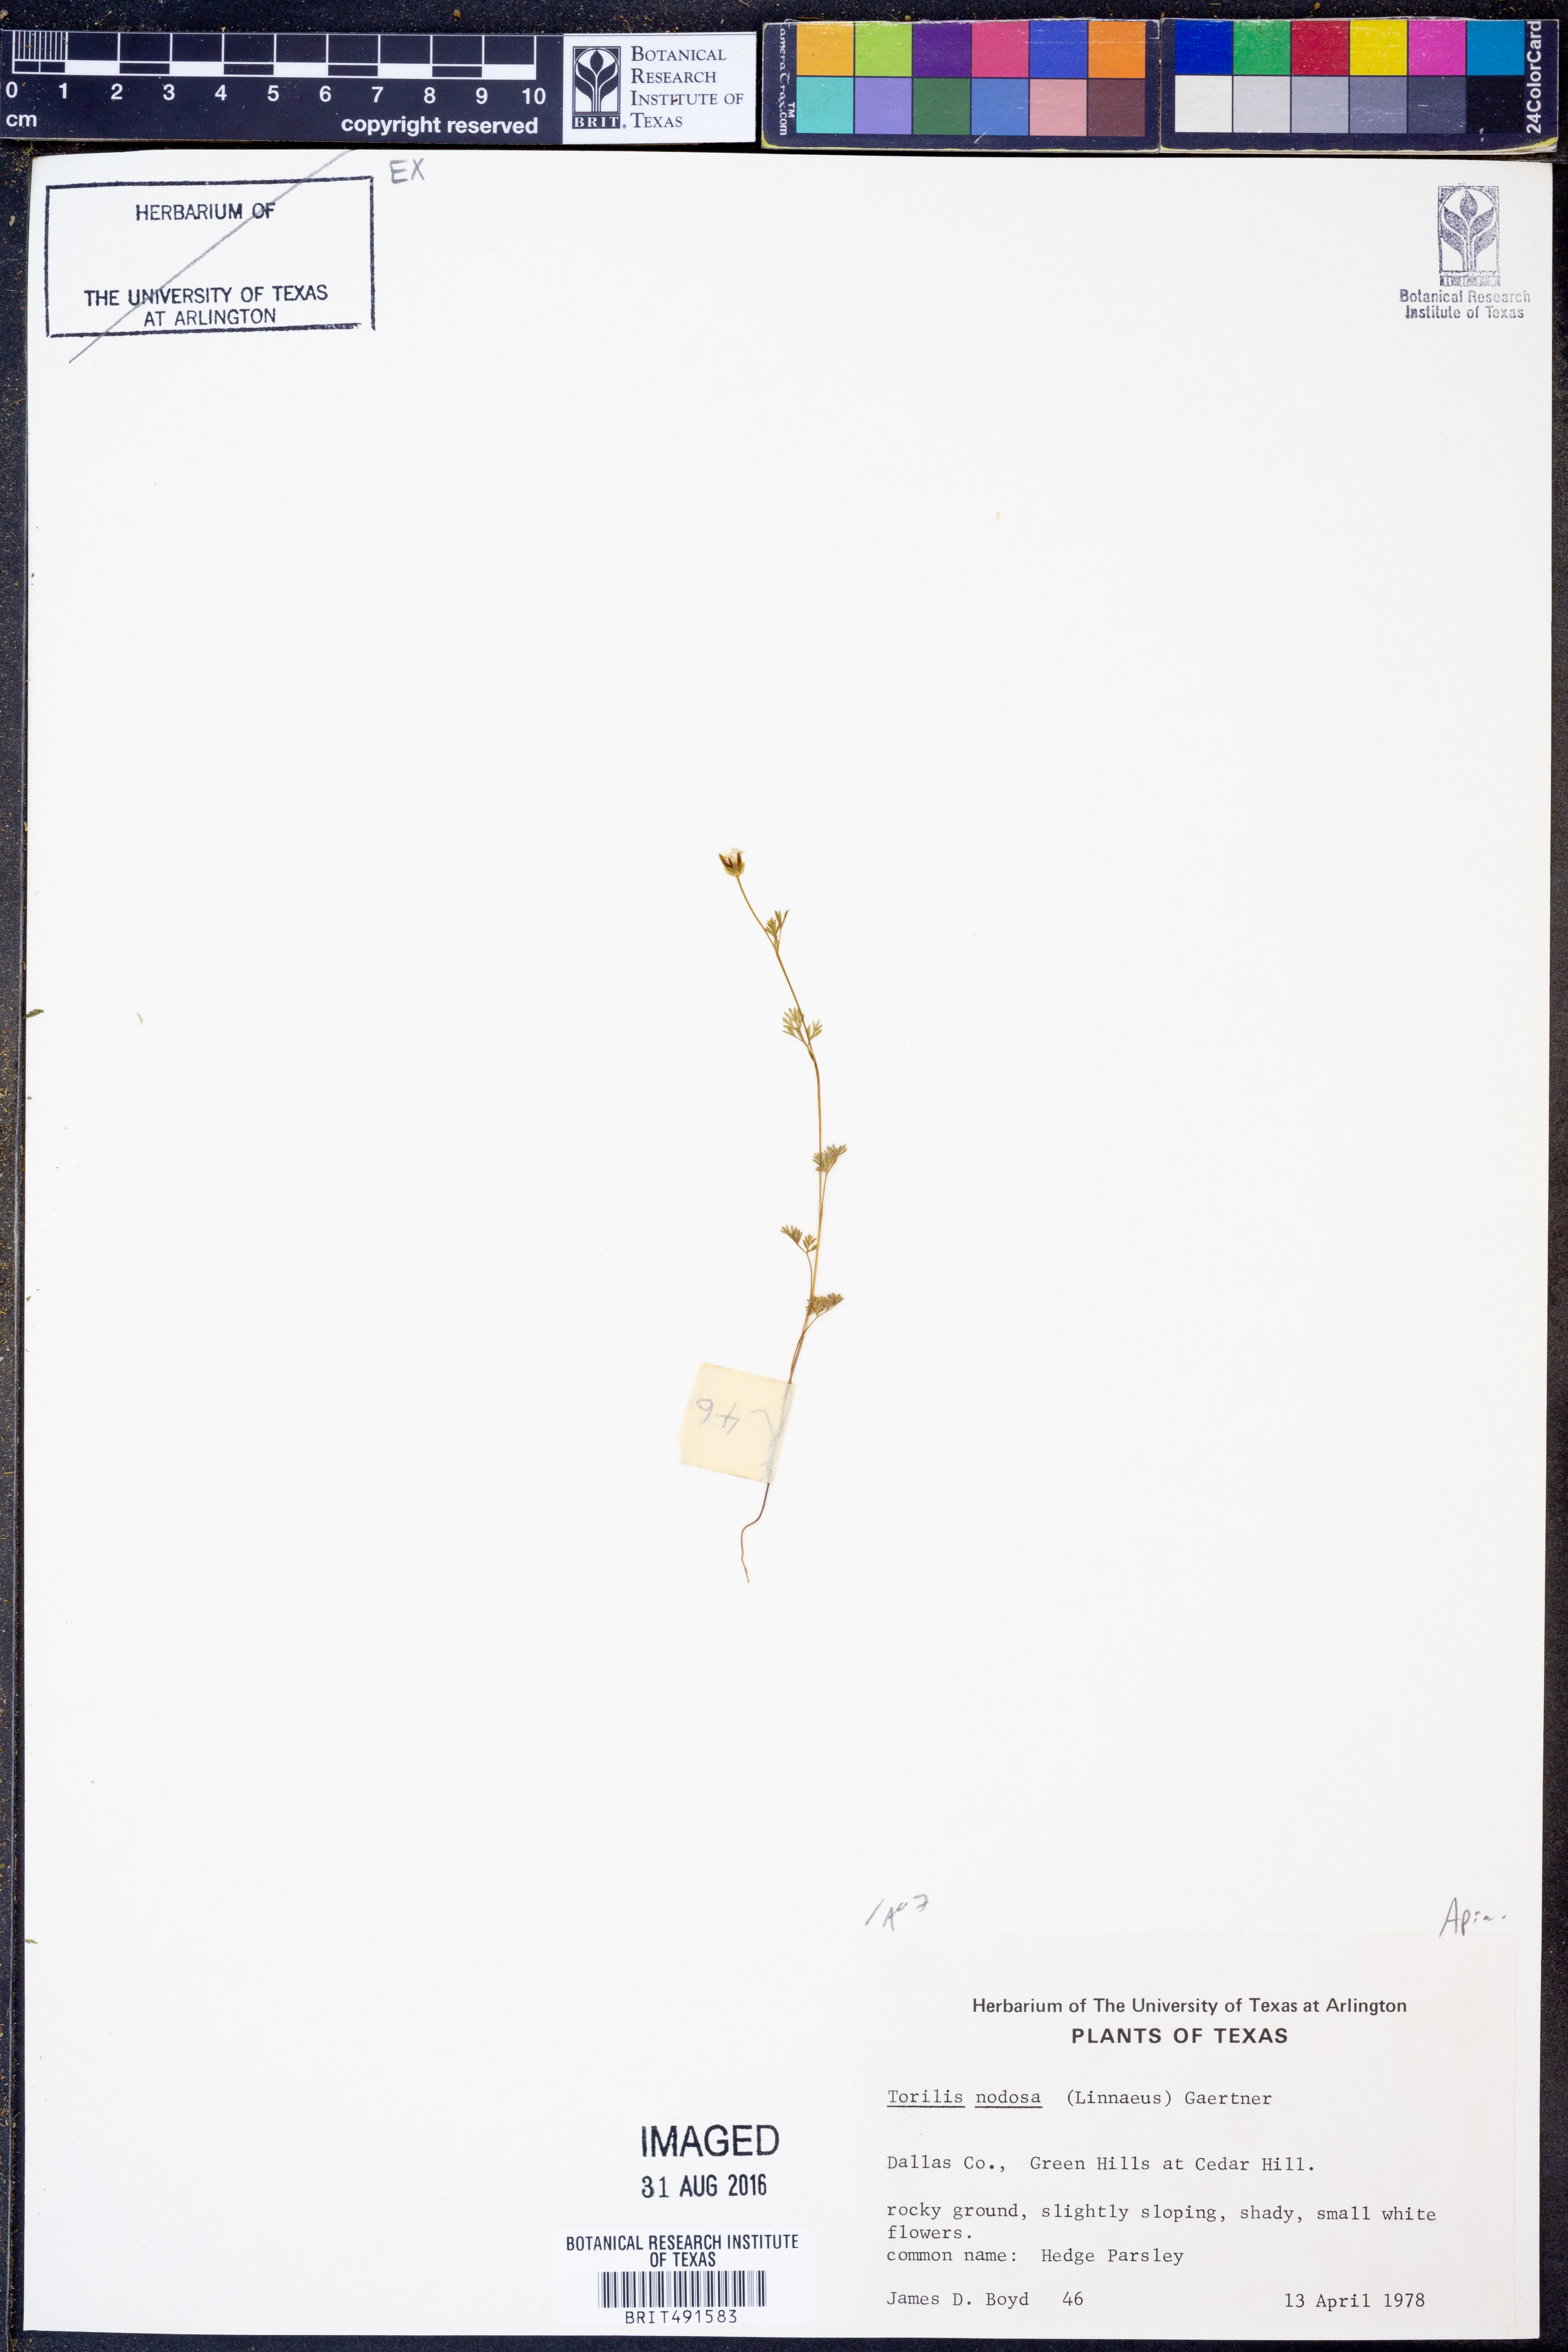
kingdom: Plantae
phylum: Tracheophyta
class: Magnoliopsida
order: Apiales
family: Apiaceae
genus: Torilis
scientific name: Torilis nodosa
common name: Knotted hedge-parsley
